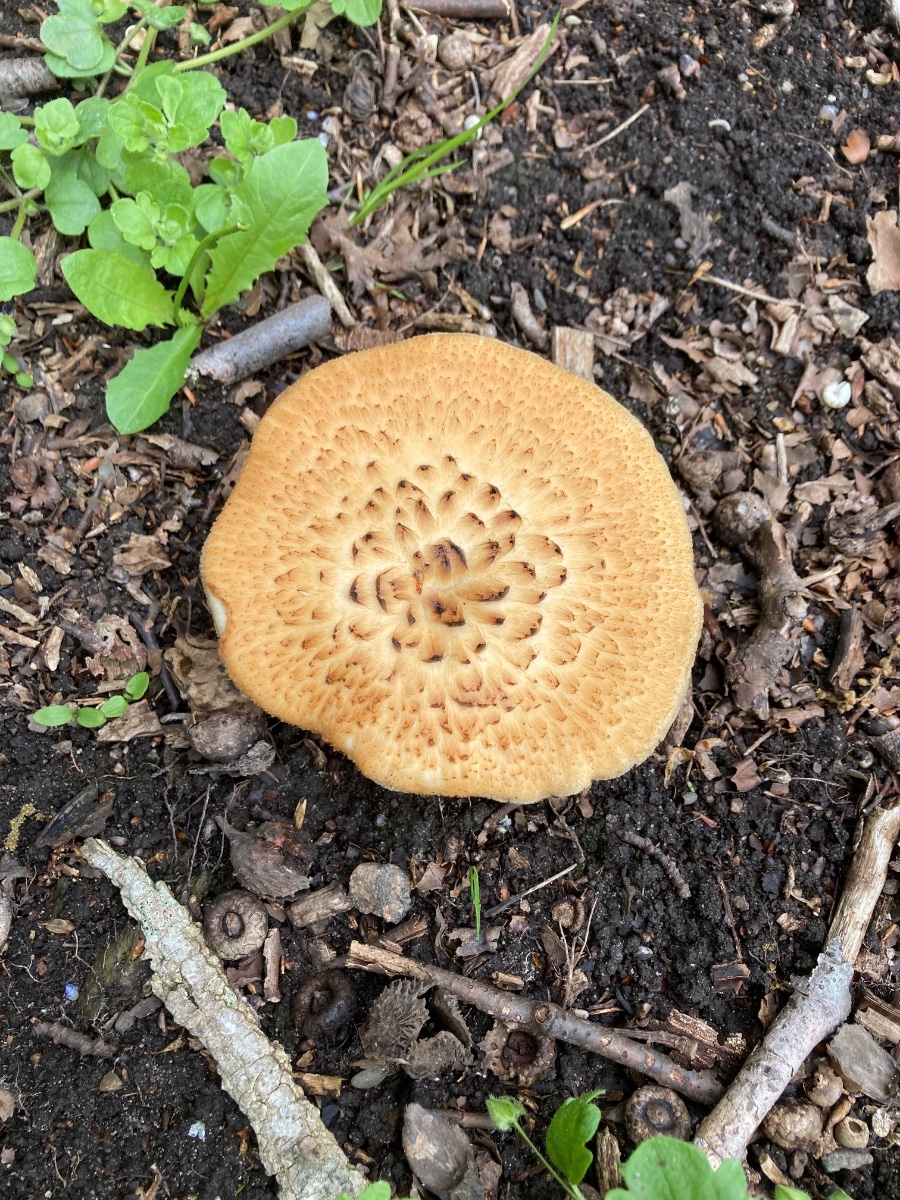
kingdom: Fungi
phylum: Basidiomycota
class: Agaricomycetes
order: Polyporales
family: Polyporaceae
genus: Polyporus
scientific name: Polyporus tuberaster
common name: knoldet stilkporesvamp
